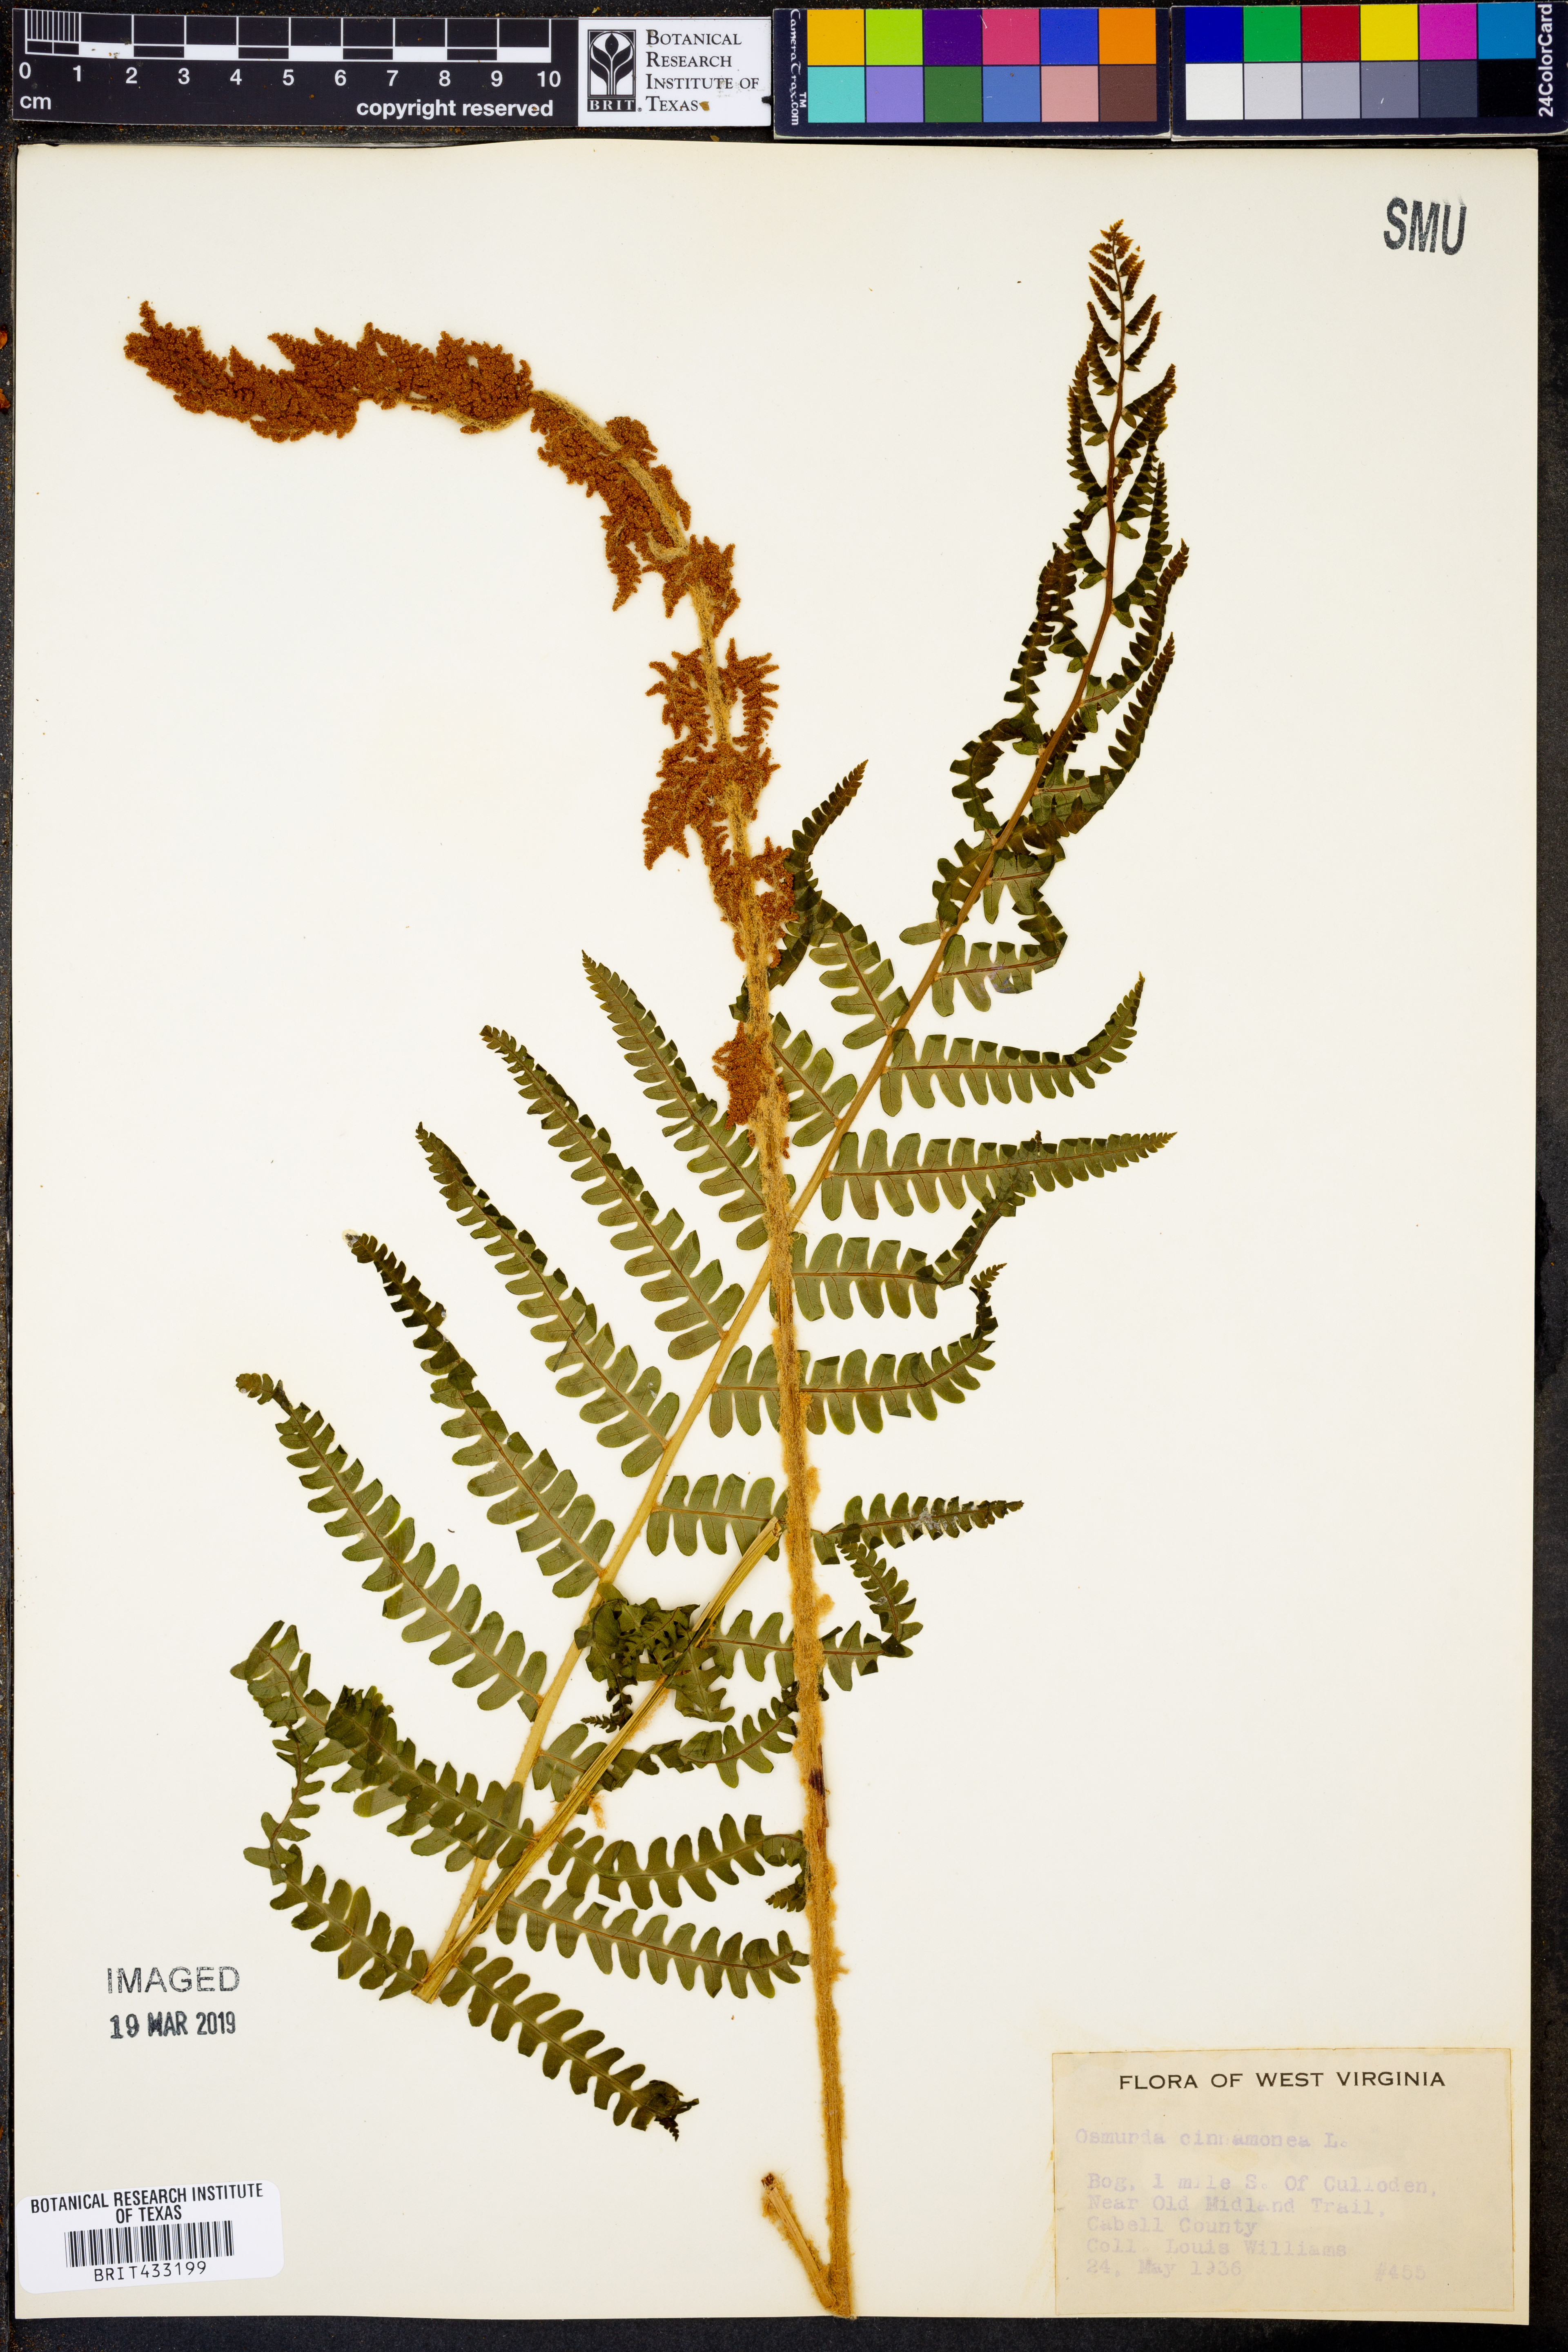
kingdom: Plantae
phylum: Tracheophyta
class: Polypodiopsida
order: Osmundales
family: Osmundaceae
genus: Osmundastrum
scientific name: Osmundastrum cinnamomeum
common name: Cinnamon fern
